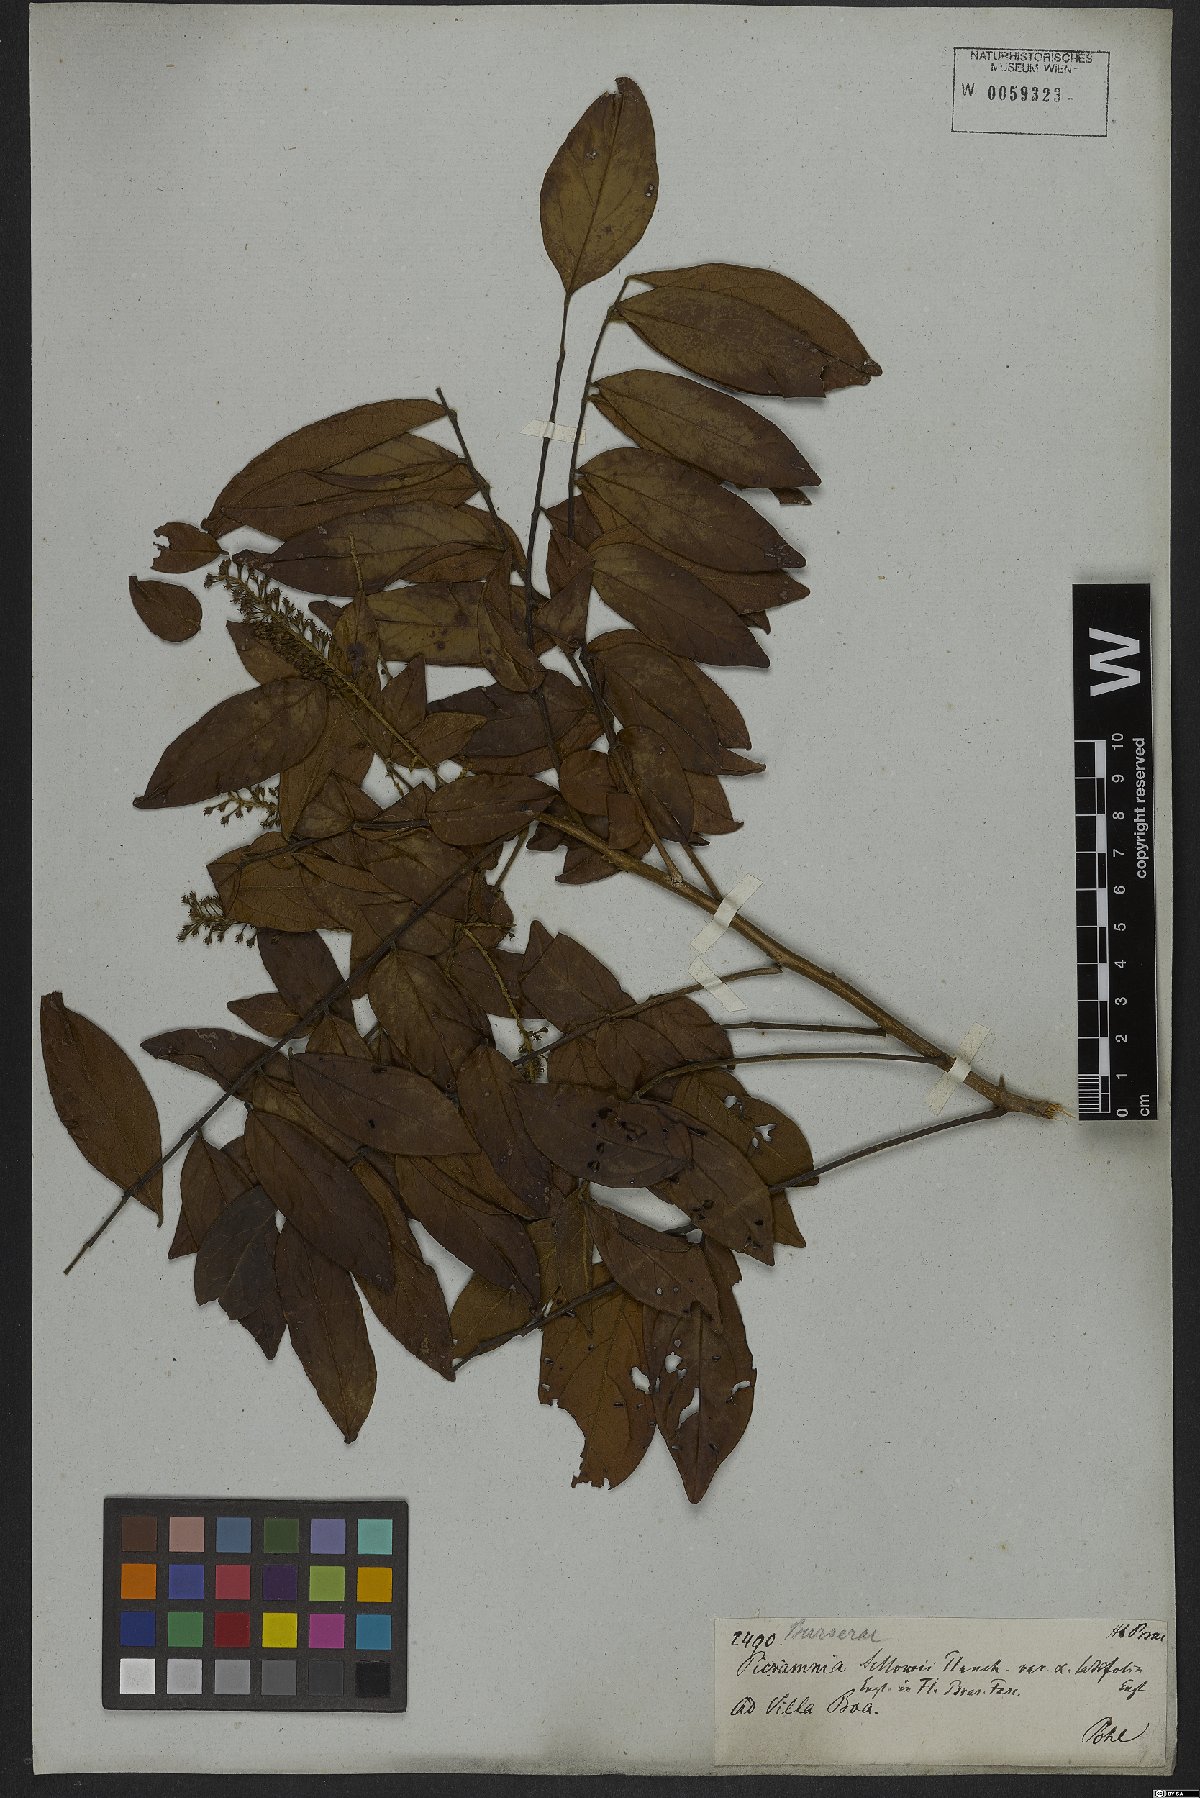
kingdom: Plantae
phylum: Tracheophyta
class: Magnoliopsida
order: Picramniales
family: Picramniaceae
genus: Picramnia
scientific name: Picramnia sellowii
